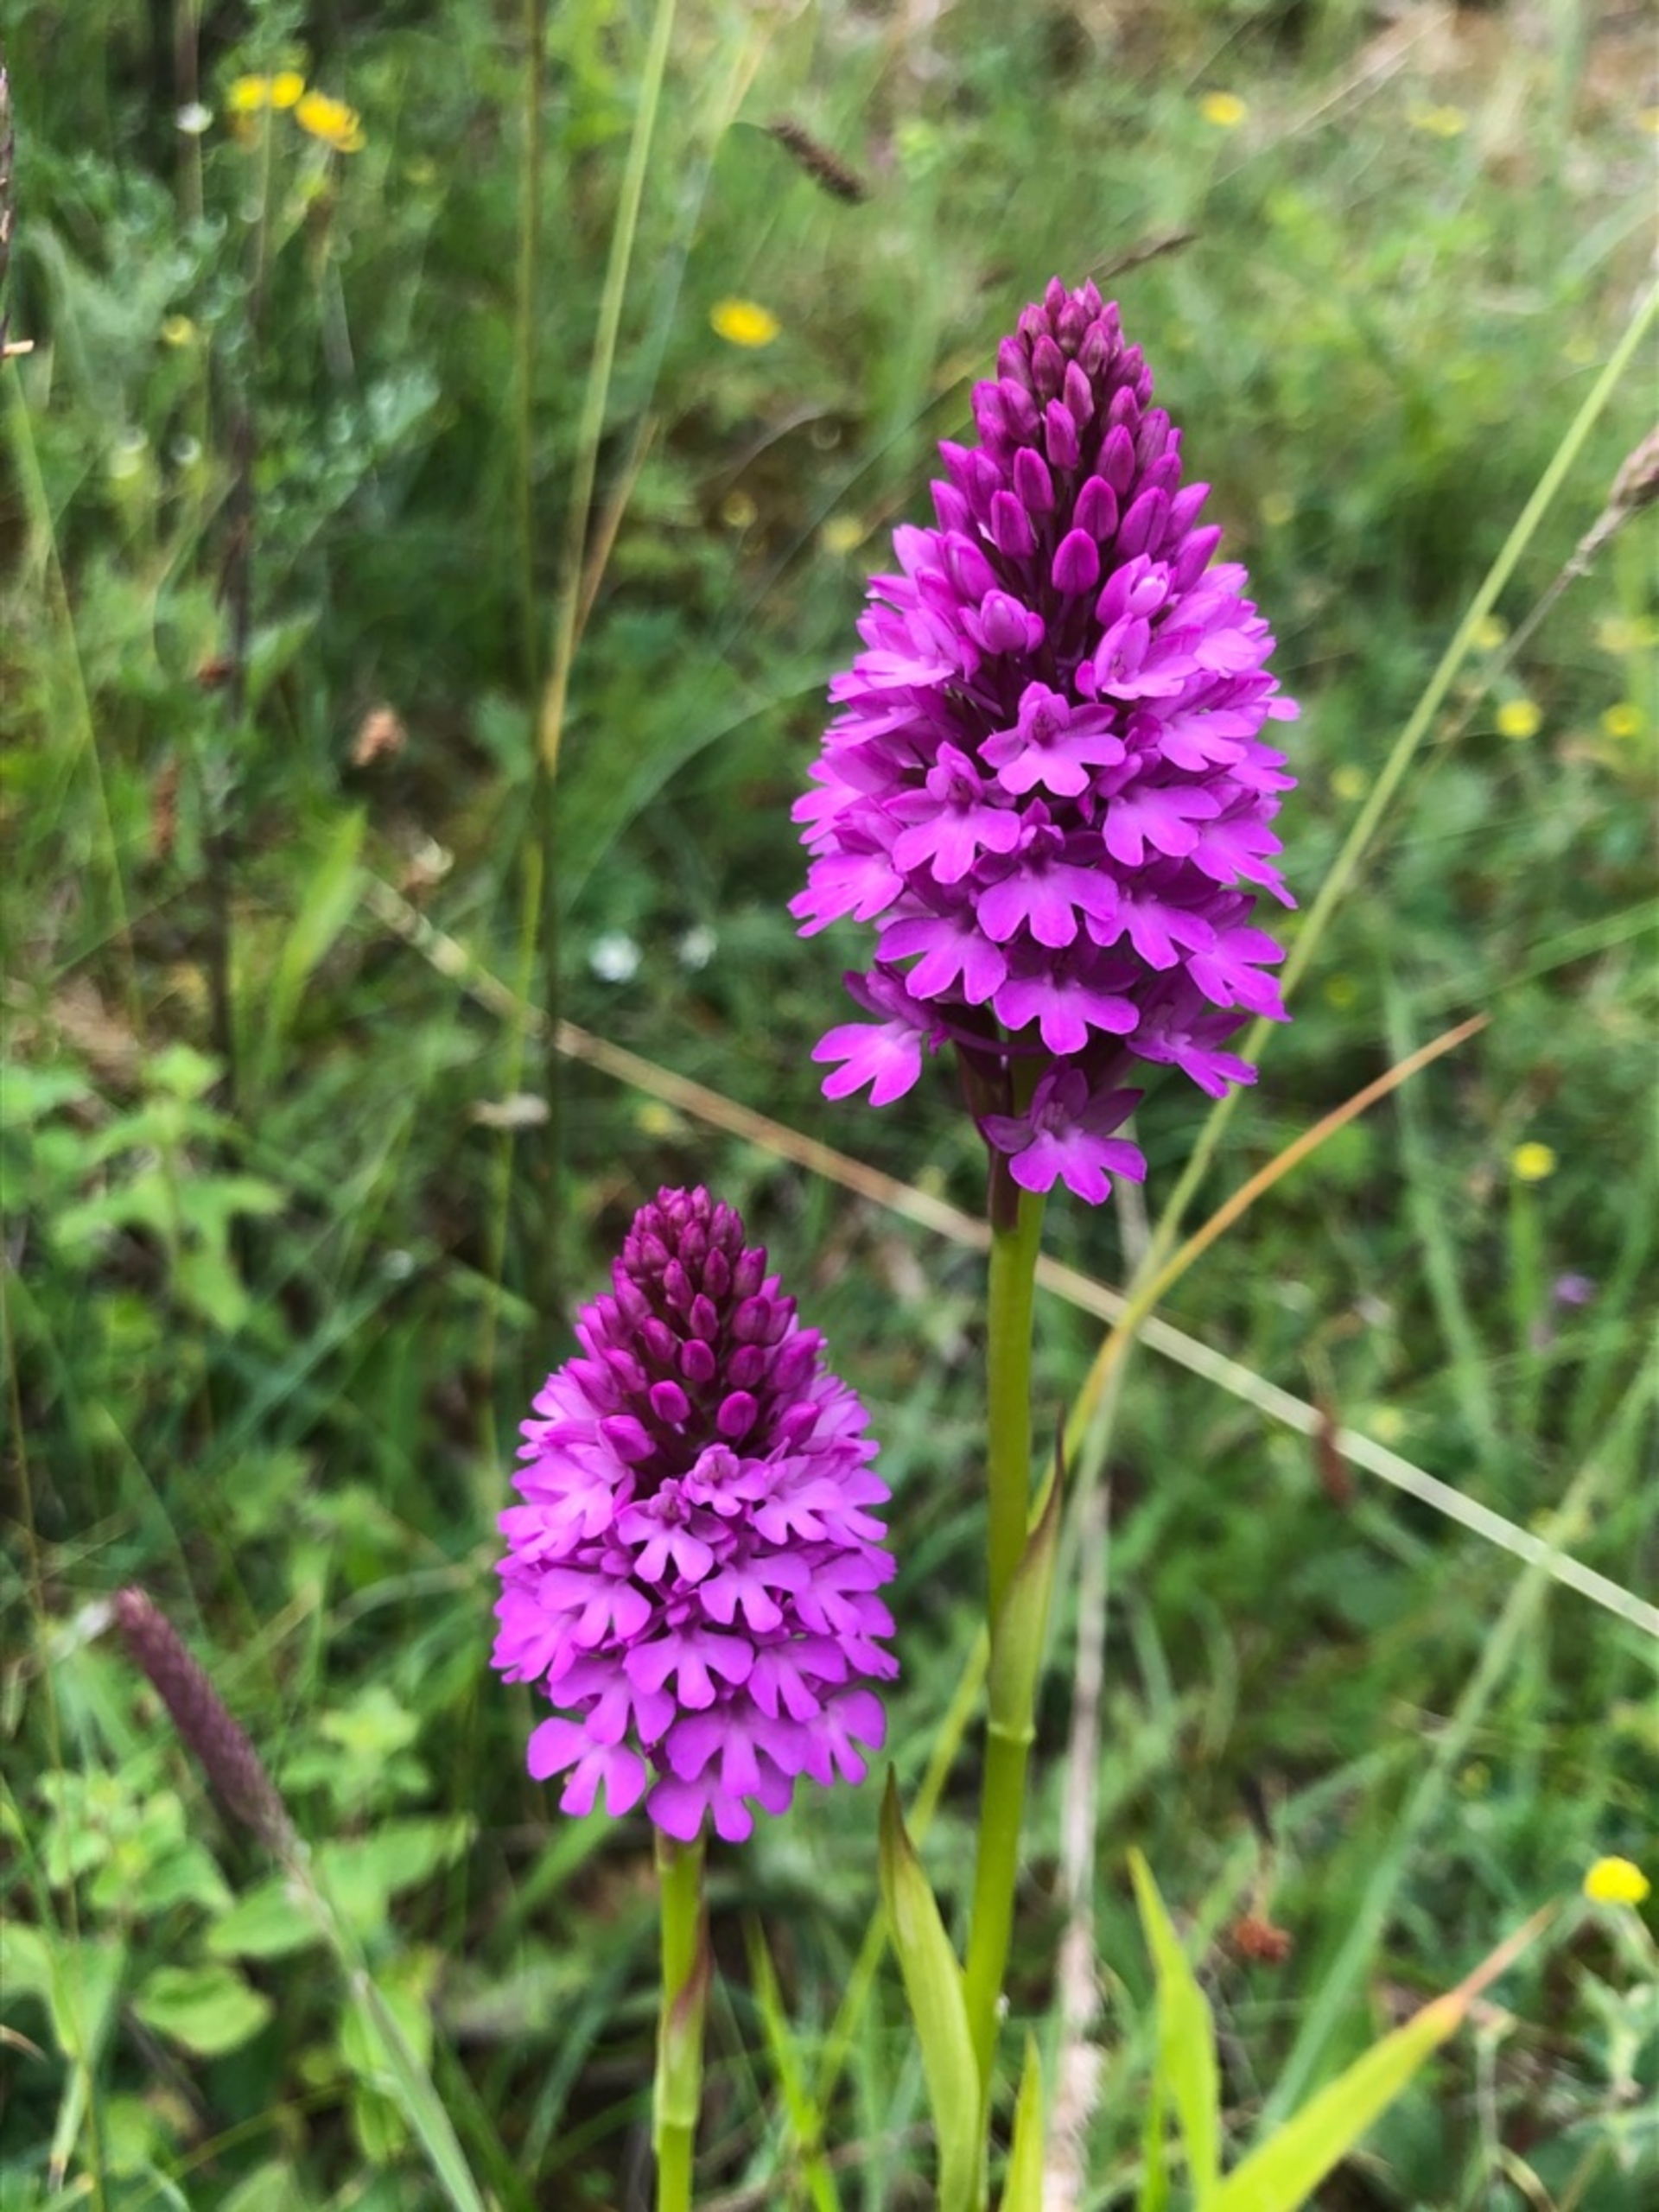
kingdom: Plantae
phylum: Tracheophyta
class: Liliopsida
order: Asparagales
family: Orchidaceae
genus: Anacamptis
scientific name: Anacamptis pyramidalis
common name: Horndrager
